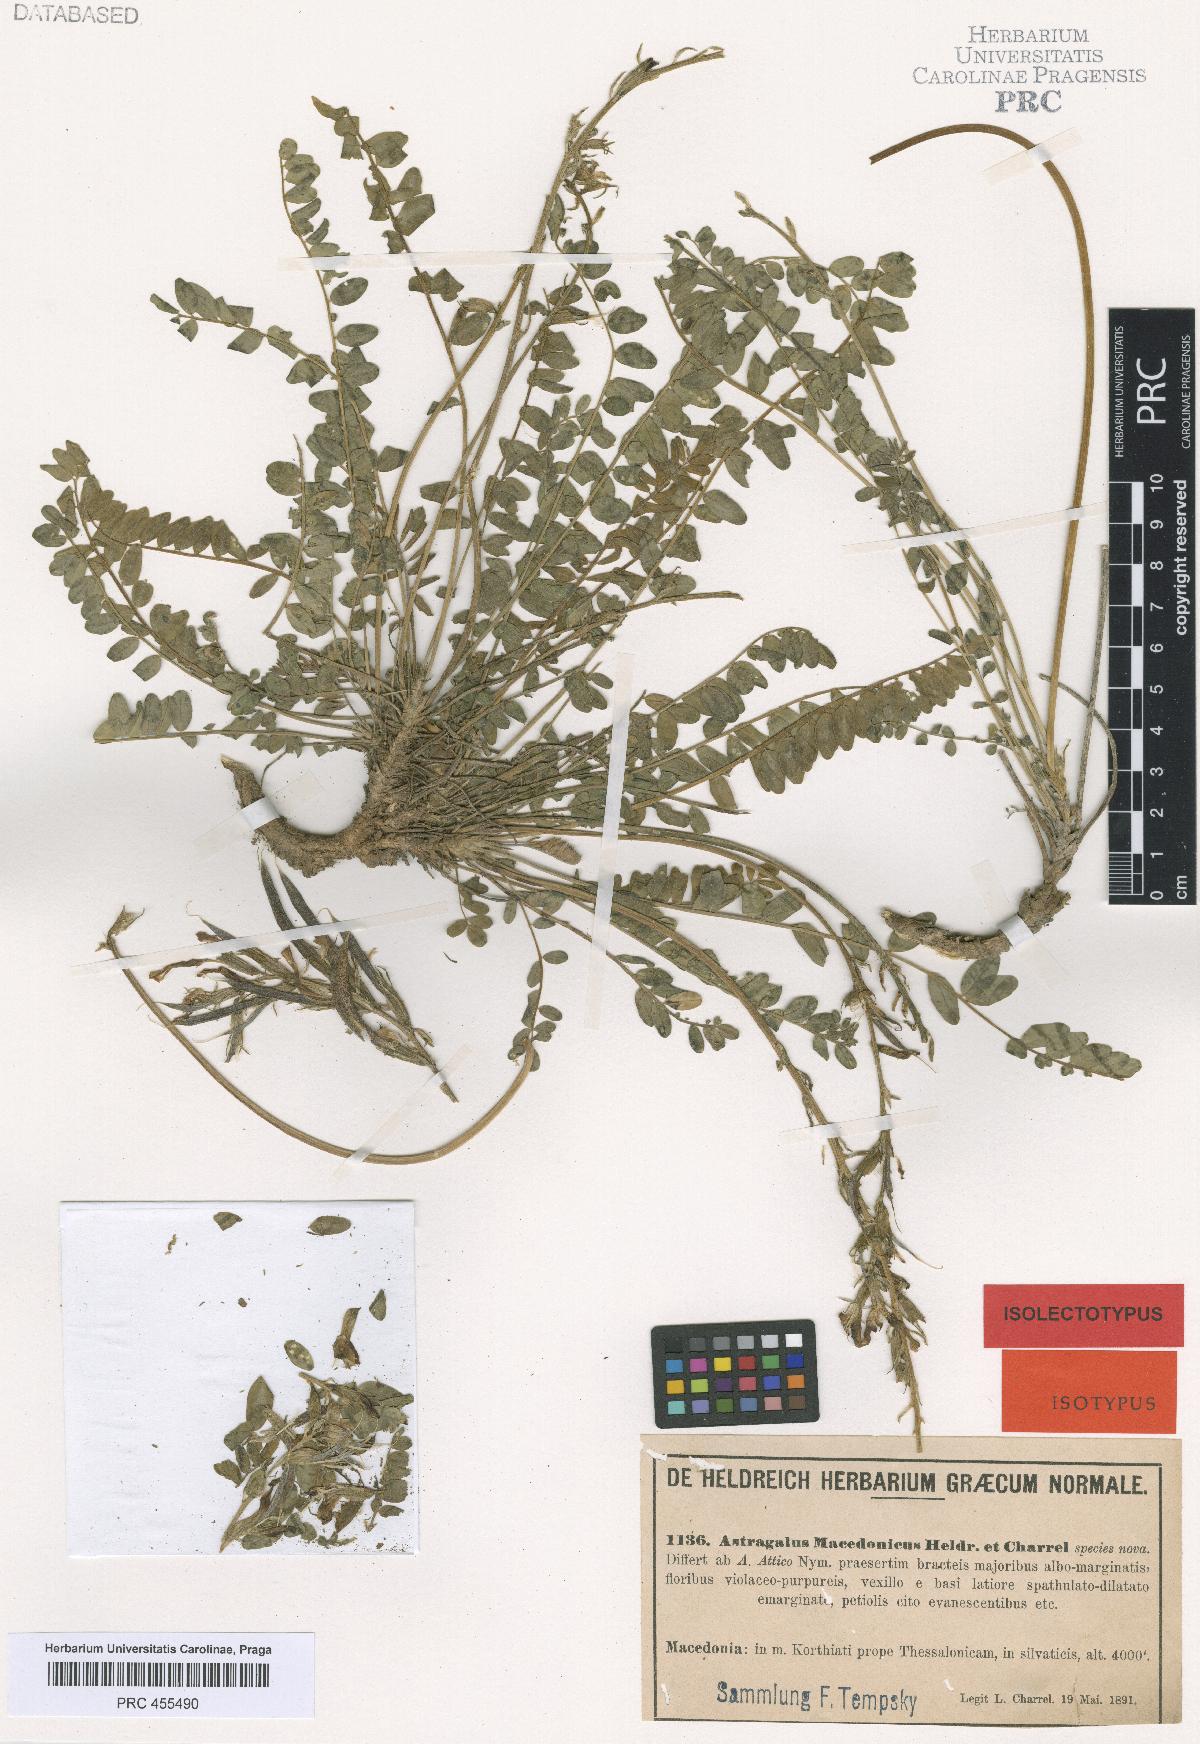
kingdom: Plantae
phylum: Tracheophyta
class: Magnoliopsida
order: Fabales
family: Fabaceae
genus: Astragalus
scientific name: Astragalus monspessulanus
